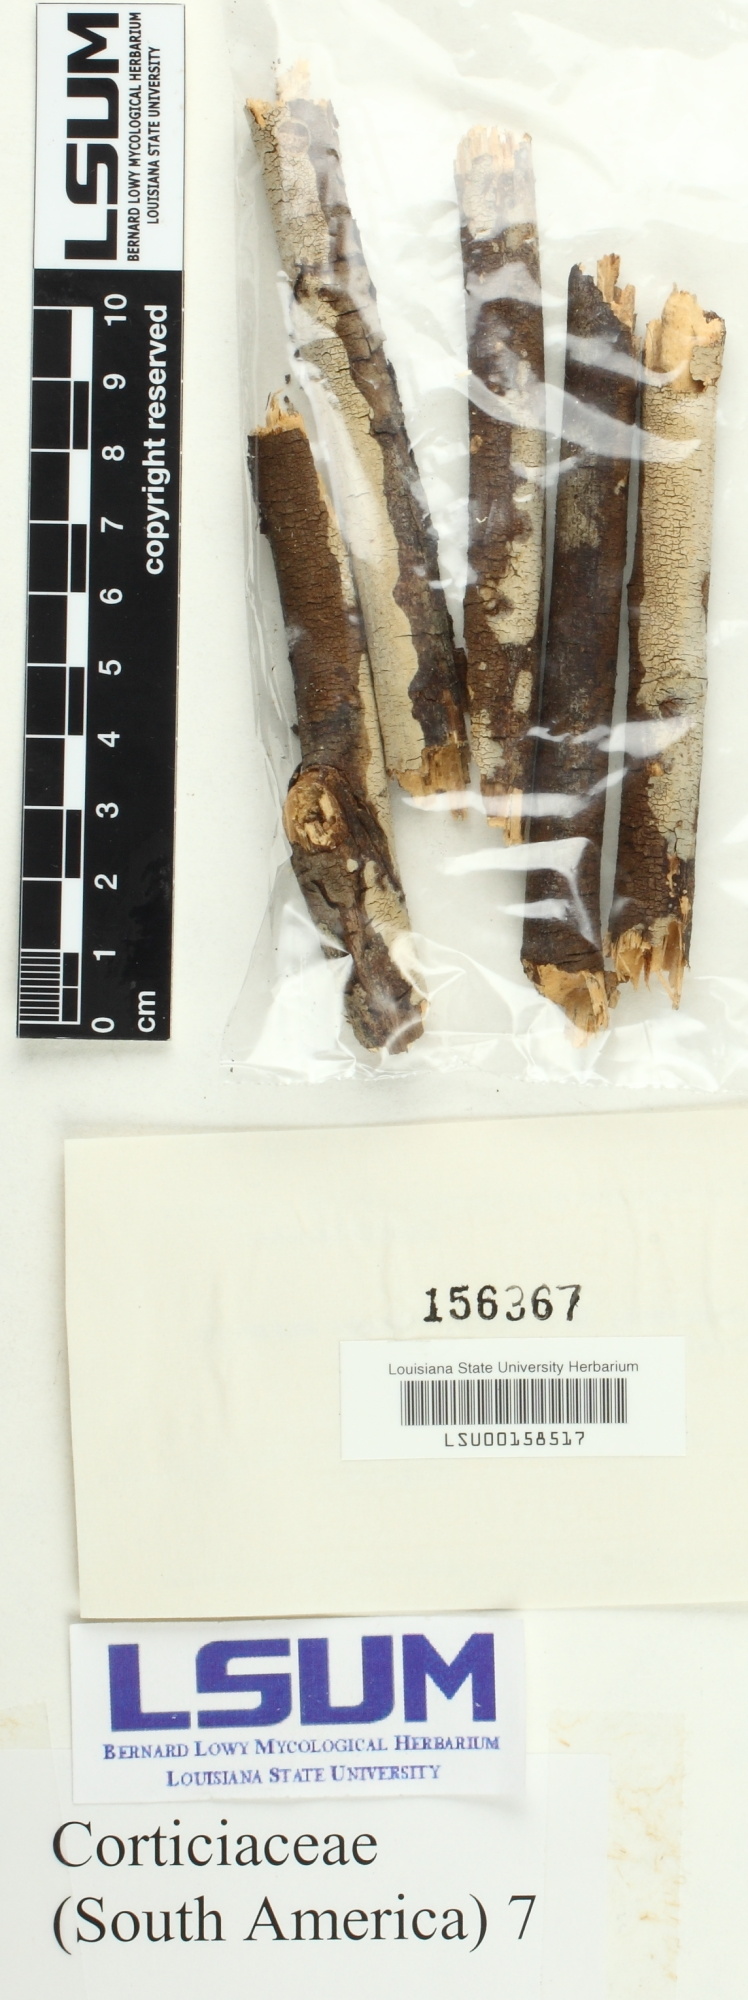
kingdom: Fungi
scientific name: Fungi
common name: Fungi
